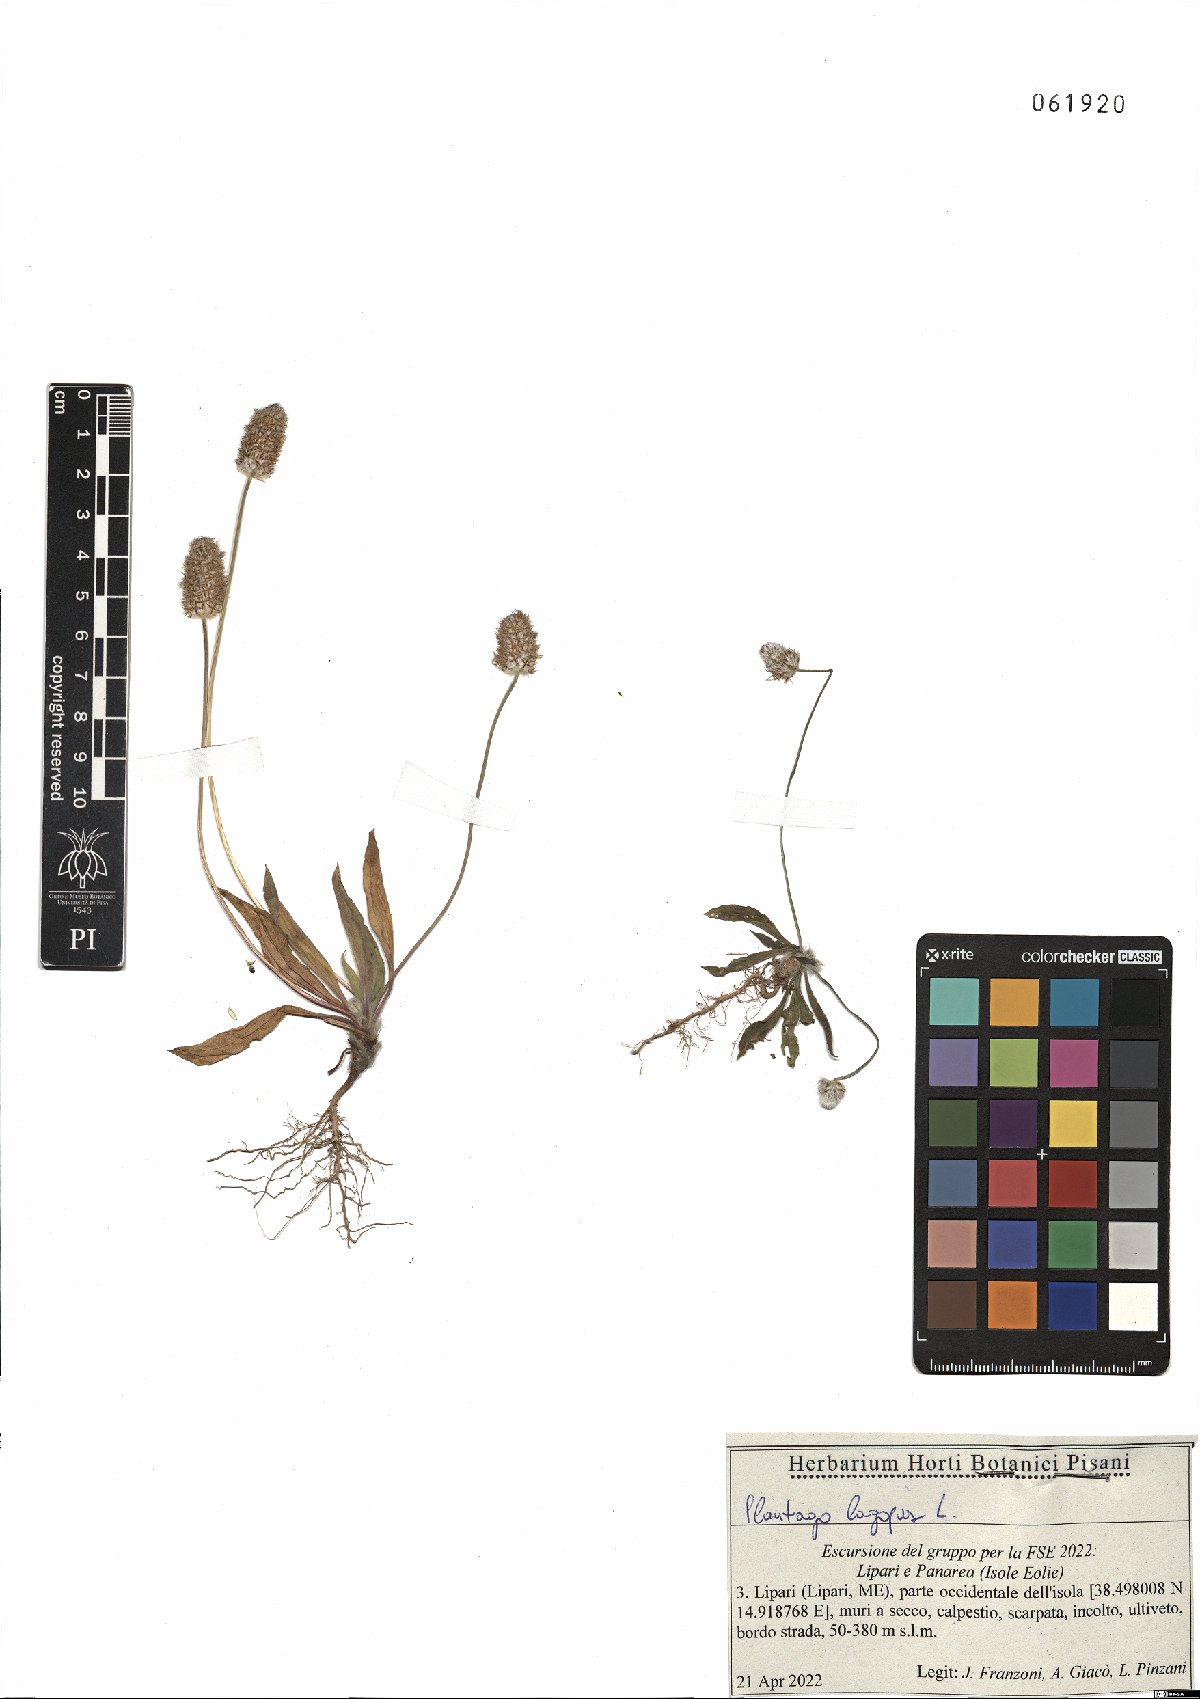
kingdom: Plantae
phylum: Tracheophyta
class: Magnoliopsida
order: Lamiales
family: Plantaginaceae
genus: Plantago
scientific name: Plantago lagopus
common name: Hare-foot plantain
